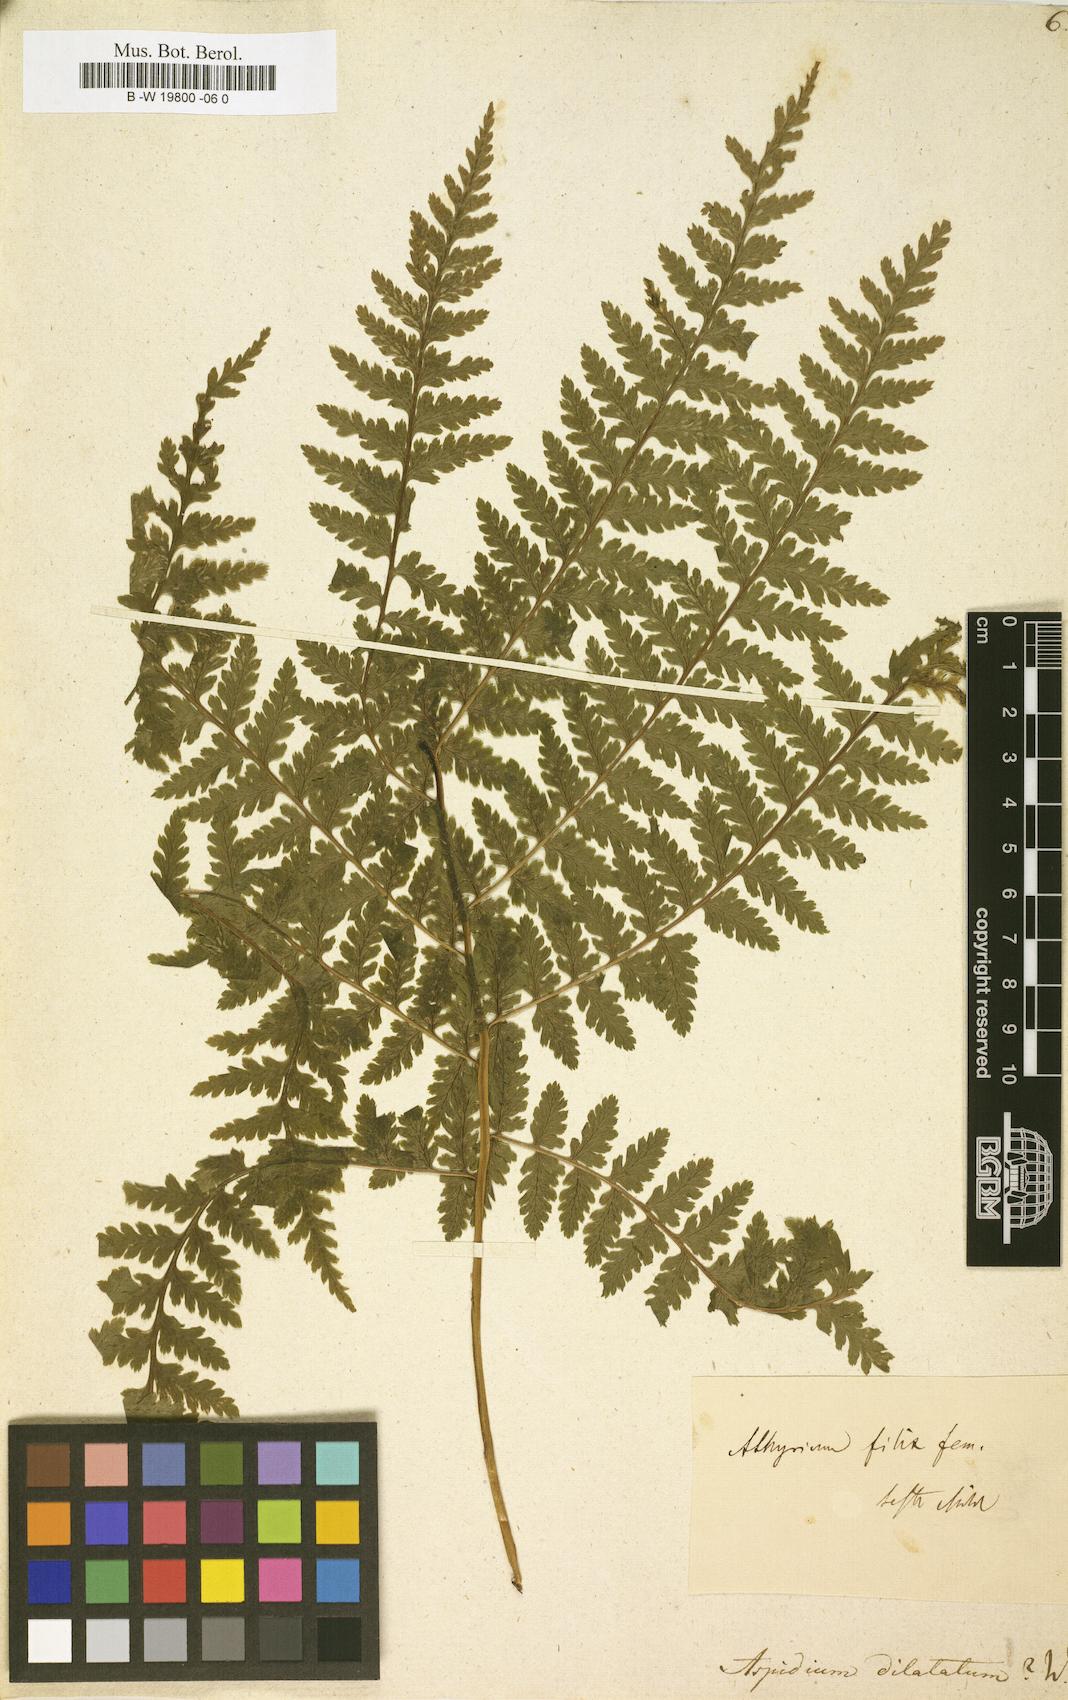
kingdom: Plantae
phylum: Tracheophyta
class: Polypodiopsida
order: Polypodiales
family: Dryopteridaceae
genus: Dryopteris
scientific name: Dryopteris dilatata
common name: Broad buckler-fern
